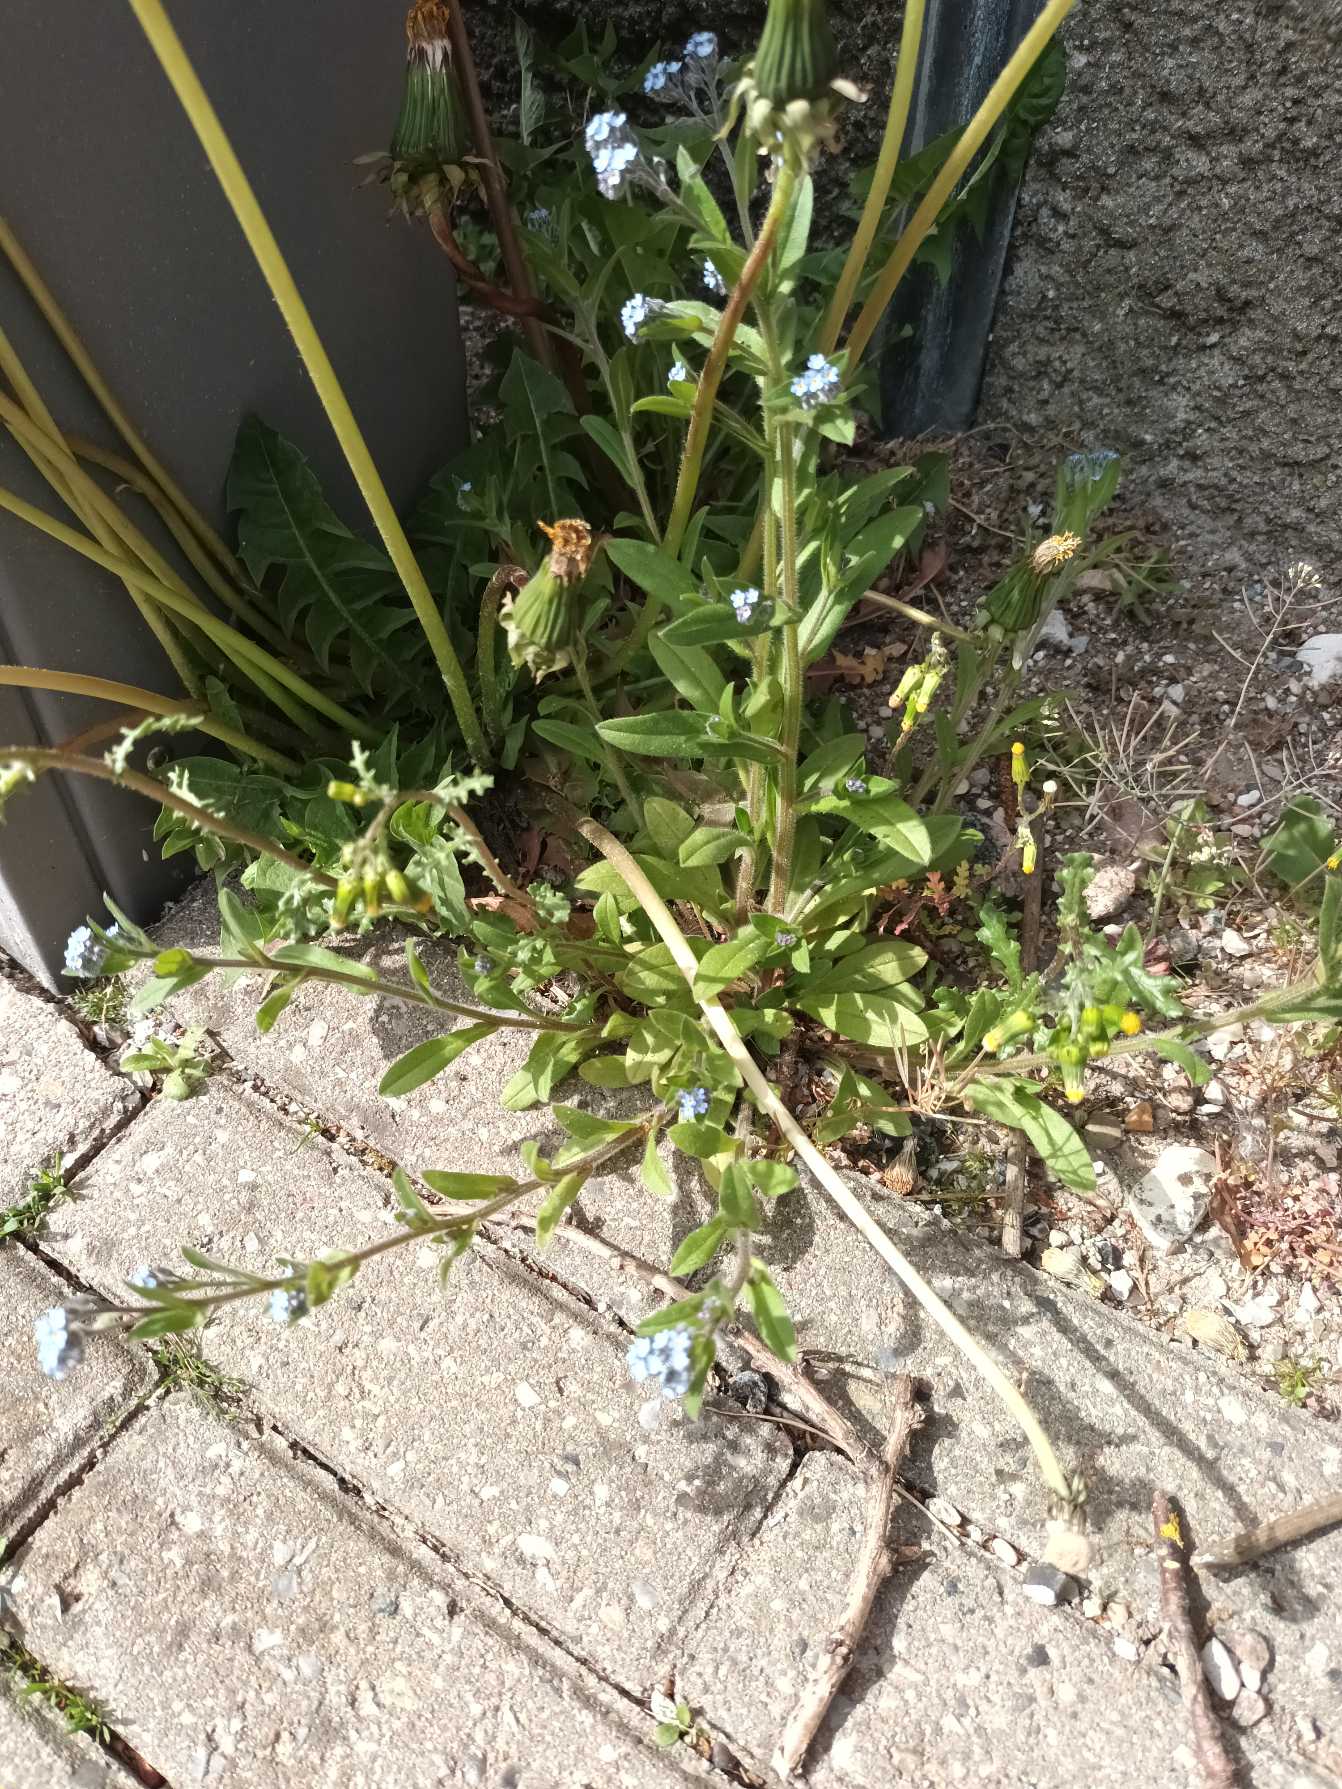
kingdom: Plantae
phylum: Tracheophyta
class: Magnoliopsida
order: Boraginales
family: Boraginaceae
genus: Myosotis
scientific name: Myosotis arvensis
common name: Mark-forglemmigej
